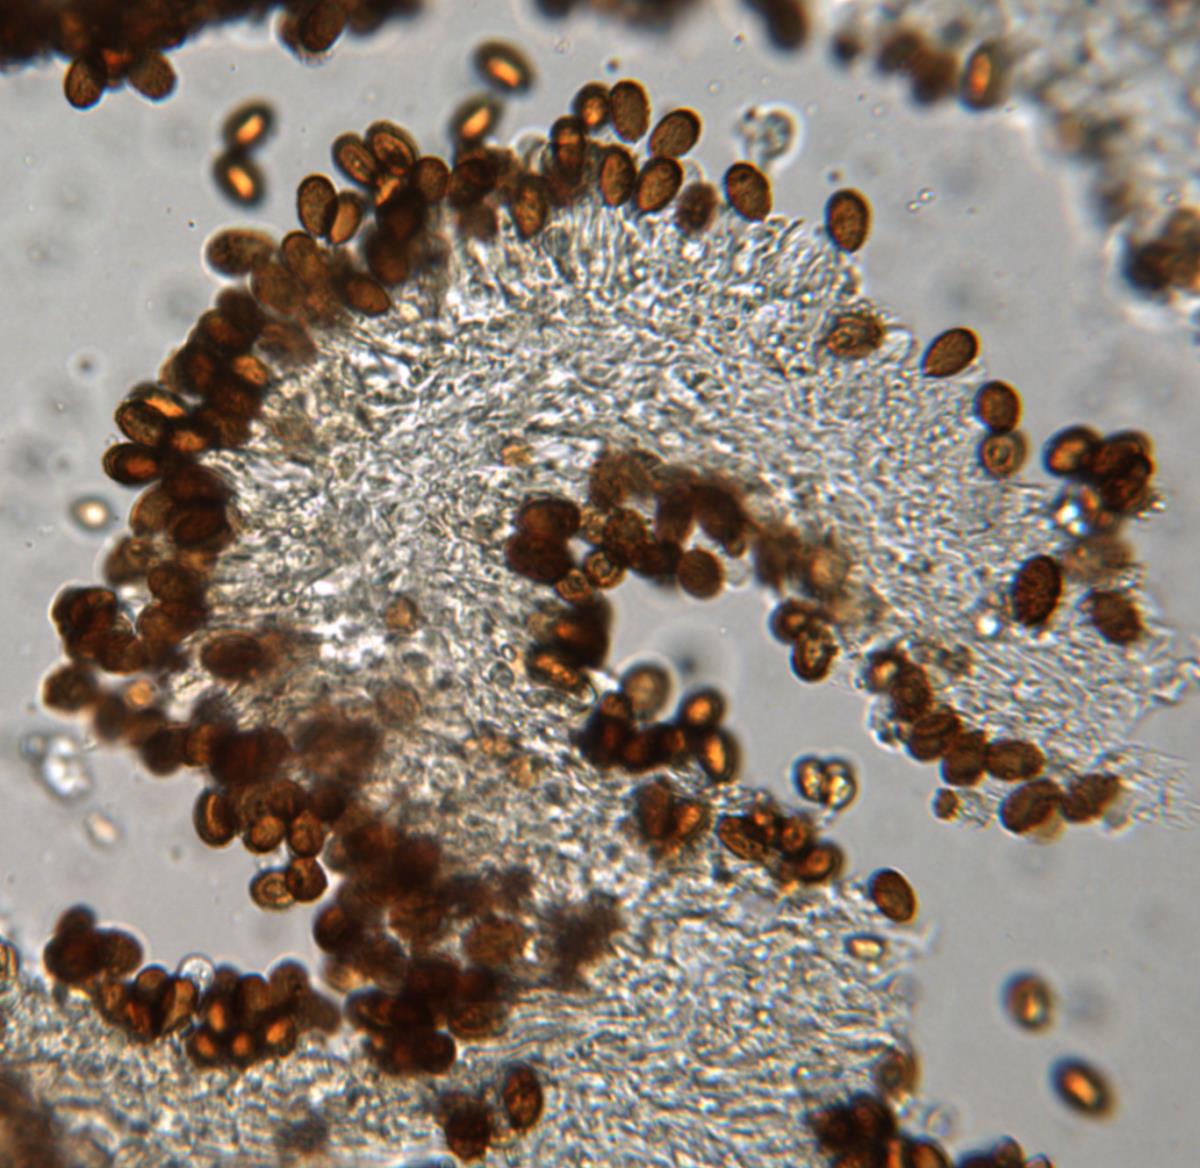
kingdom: Fungi
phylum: Basidiomycota
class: Agaricomycetes
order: Agaricales
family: Cortinariaceae
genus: Cortinarius
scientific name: Cortinarius peraurantiacus
